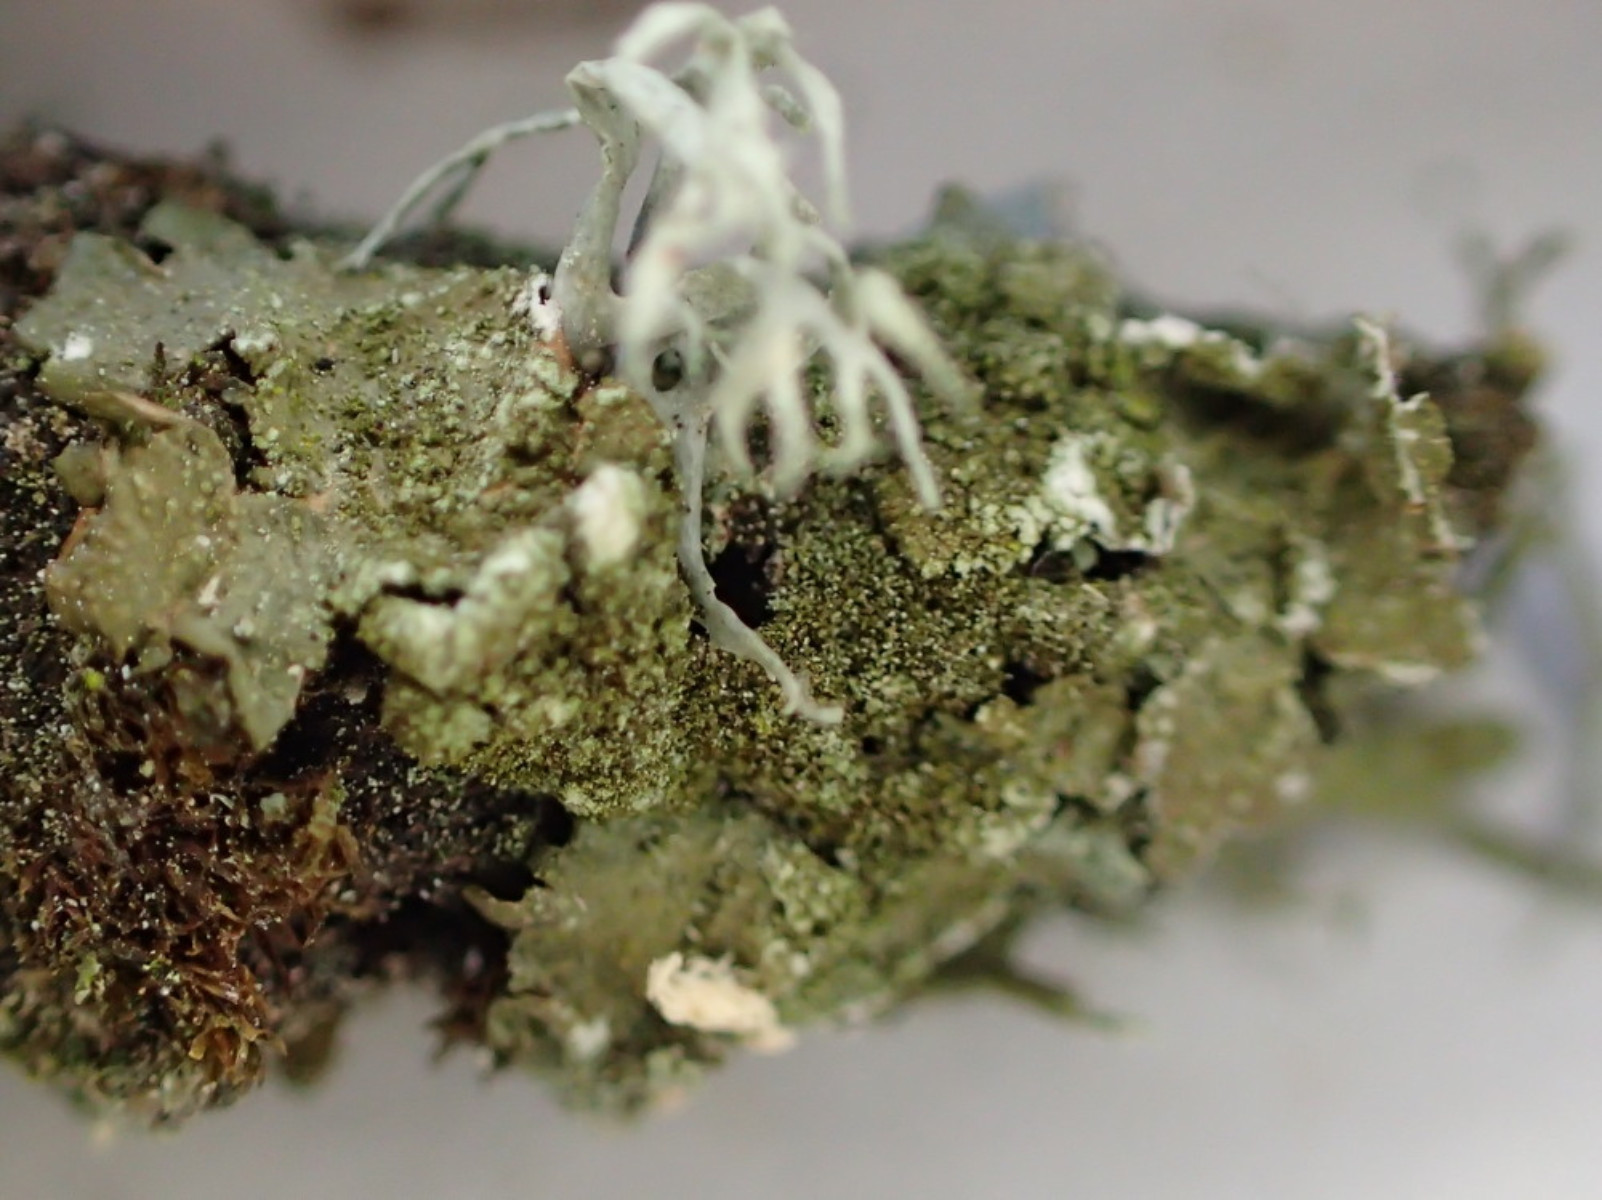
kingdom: Fungi
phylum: Ascomycota
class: Lecanoromycetes
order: Lecanorales
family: Parmeliaceae
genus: Melanelixia
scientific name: Melanelixia subaurifera
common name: guldpudret skållav
